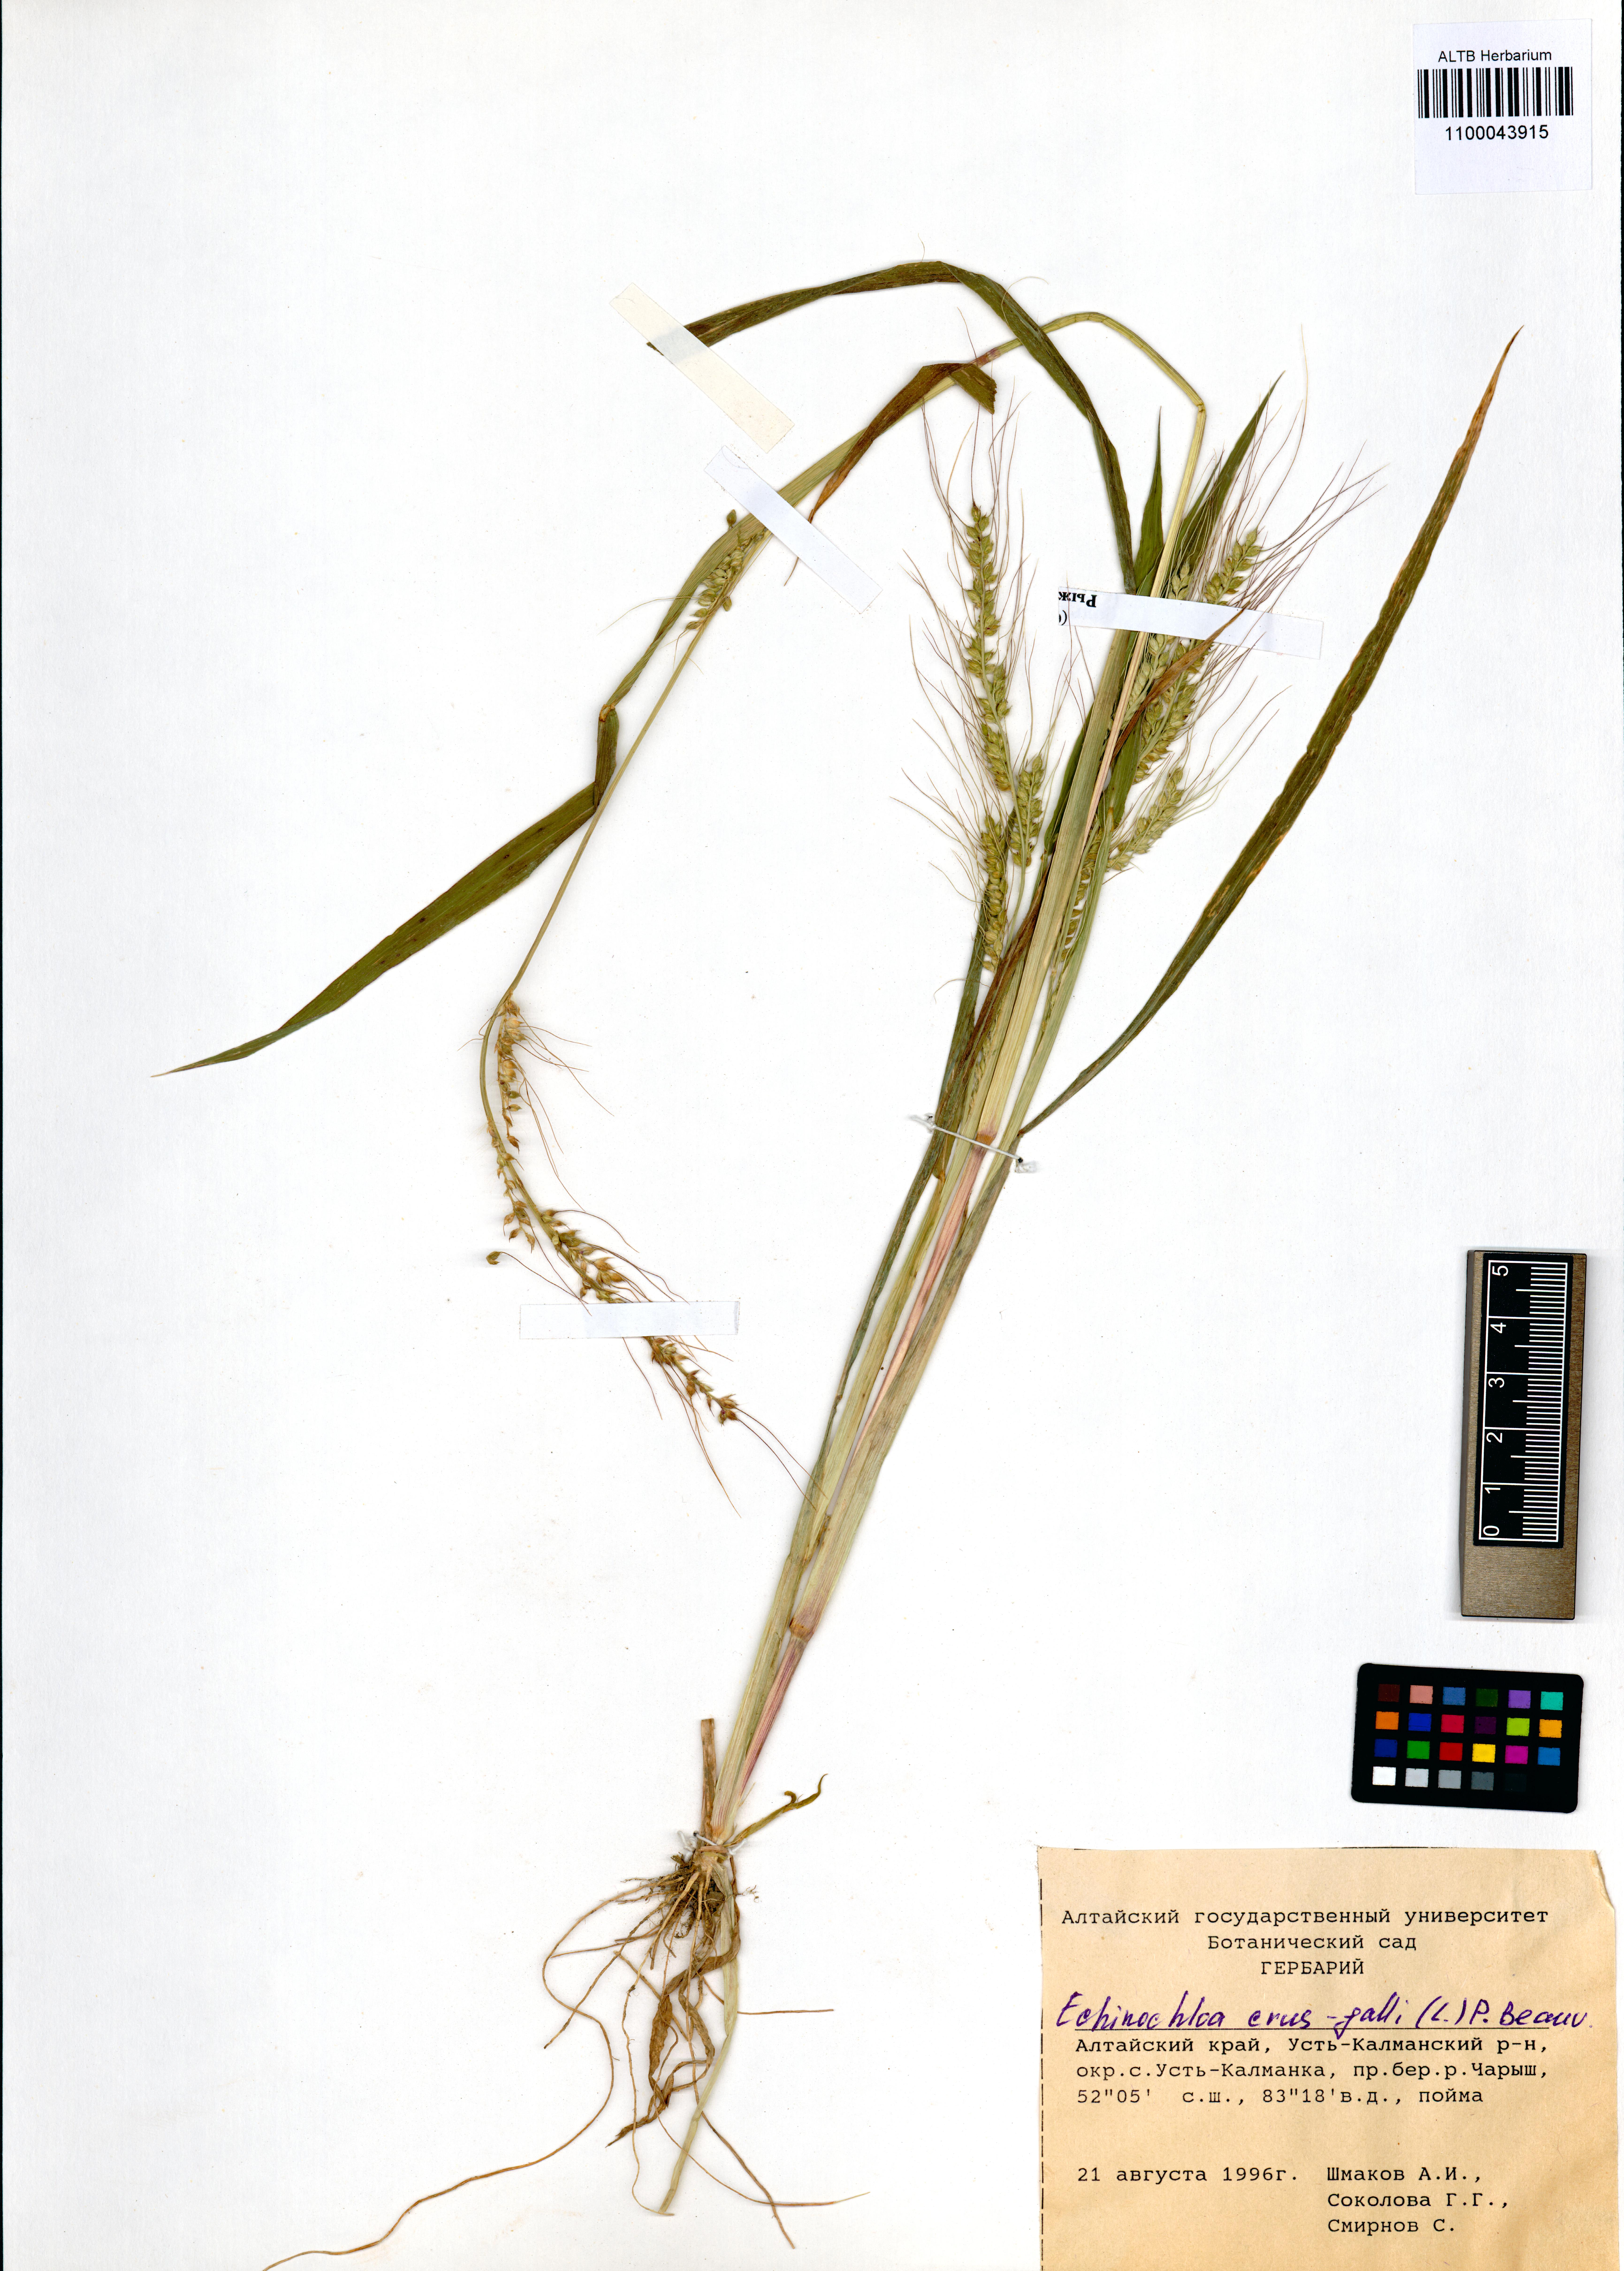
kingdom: Plantae
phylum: Tracheophyta
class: Liliopsida
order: Poales
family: Poaceae
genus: Echinochloa
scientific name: Echinochloa crus-galli
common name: Cockspur
